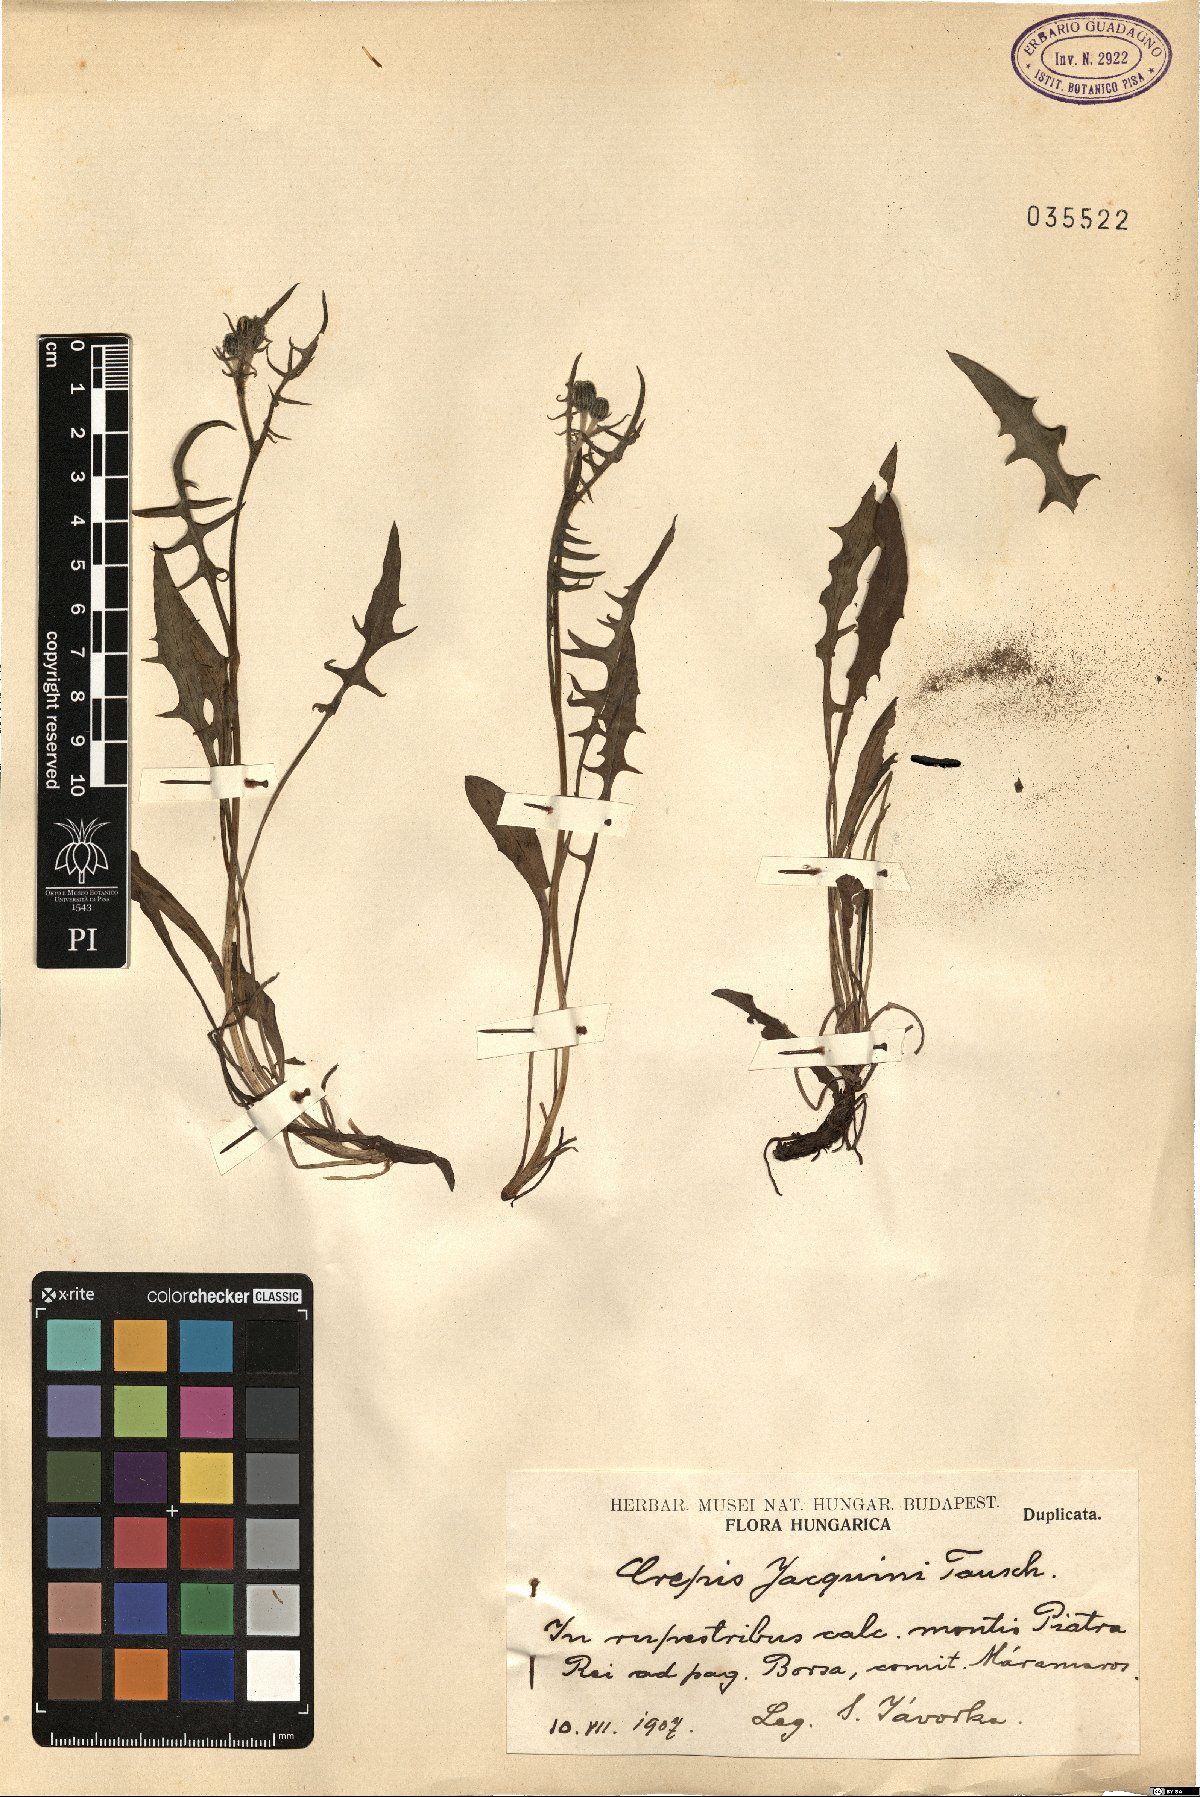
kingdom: Plantae
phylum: Tracheophyta
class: Magnoliopsida
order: Asterales
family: Asteraceae
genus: Crepis
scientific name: Crepis jacquinii
